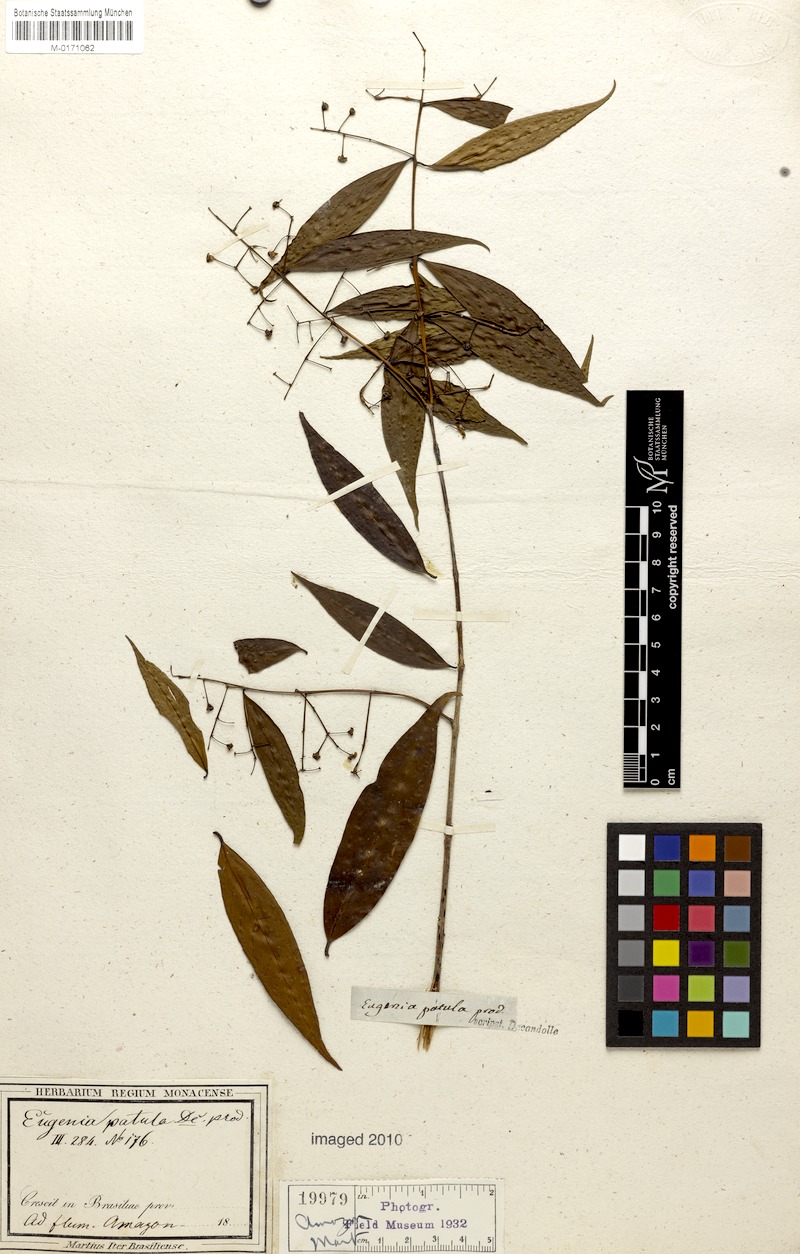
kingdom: Plantae
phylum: Tracheophyta
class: Magnoliopsida
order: Myrtales
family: Myrtaceae
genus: Eugenia
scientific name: Eugenia florida
